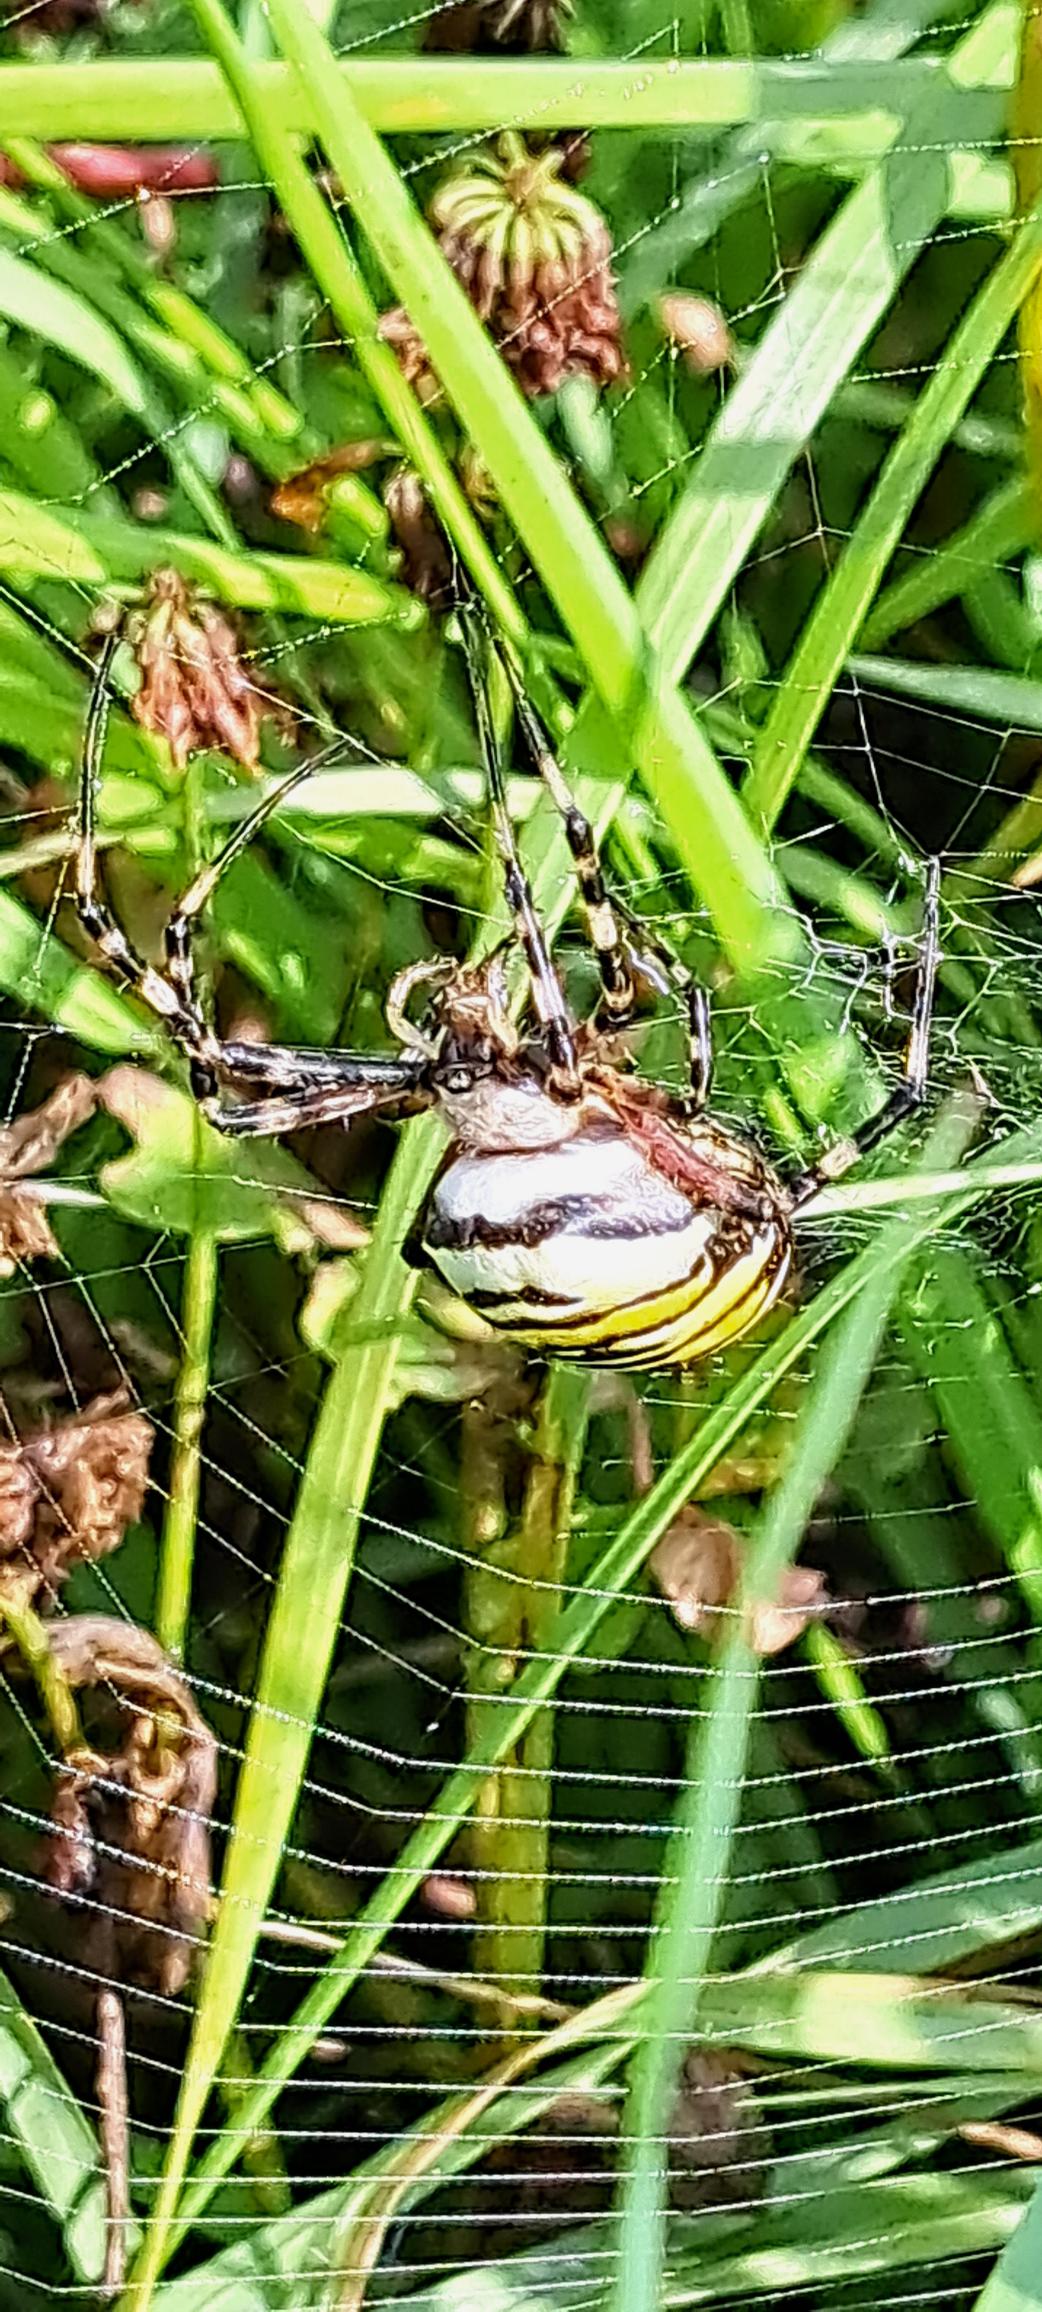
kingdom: Animalia
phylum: Arthropoda
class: Arachnida
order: Araneae
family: Araneidae
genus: Argiope
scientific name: Argiope bruennichi
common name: Hvepseedderkop
